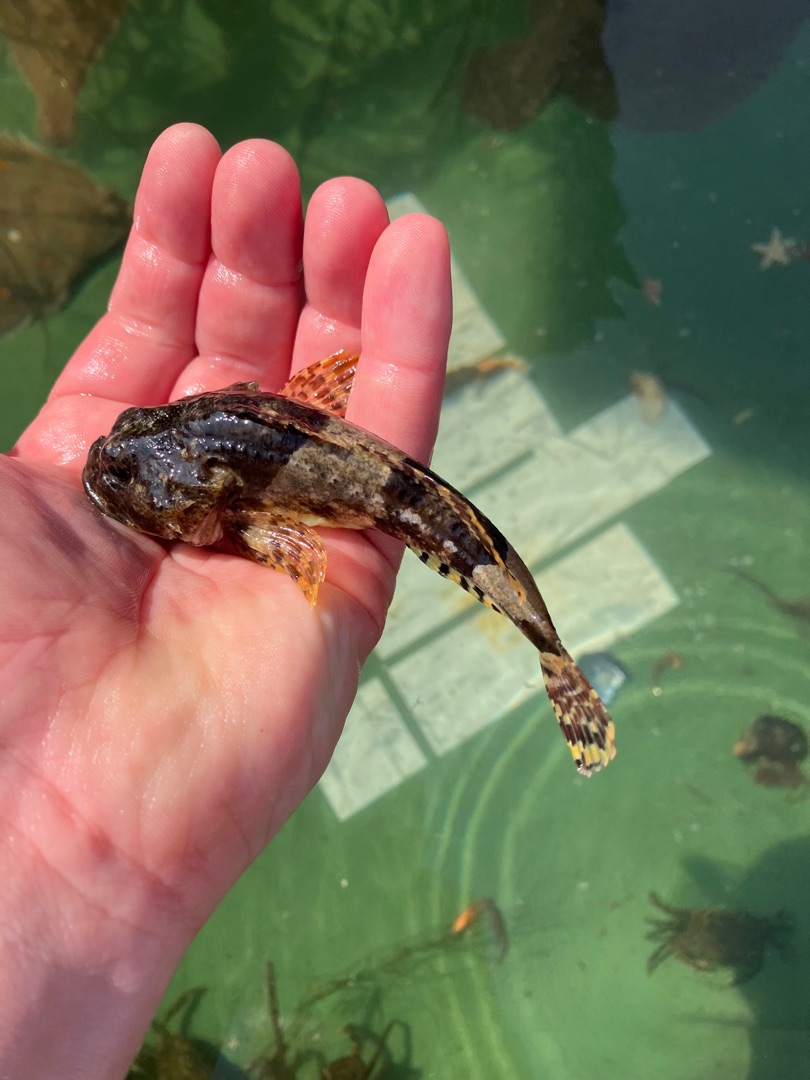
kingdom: Animalia
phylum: Chordata
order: Scorpaeniformes
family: Cottidae
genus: Myoxocephalus
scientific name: Myoxocephalus scorpius
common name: Almindelig ulk
